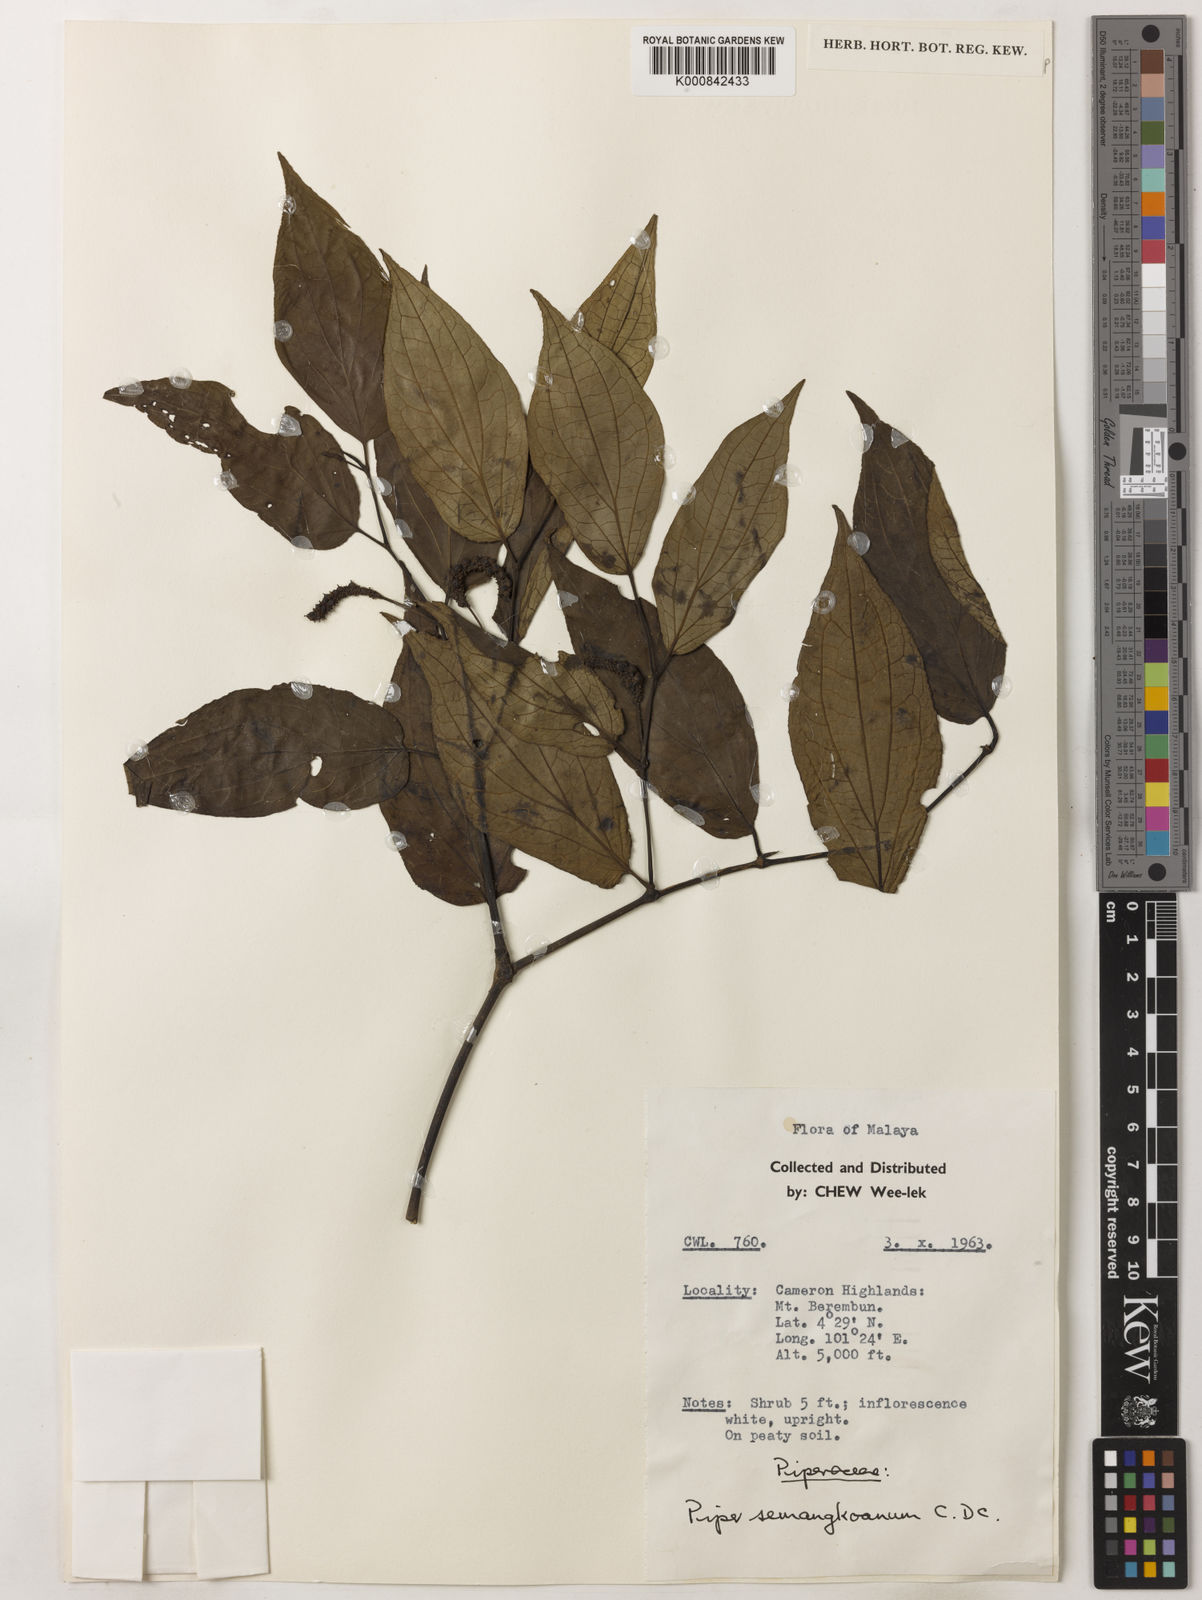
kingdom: Plantae
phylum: Tracheophyta
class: Magnoliopsida
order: Piperales
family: Piperaceae
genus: Piper
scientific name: Piper semangkoanum
